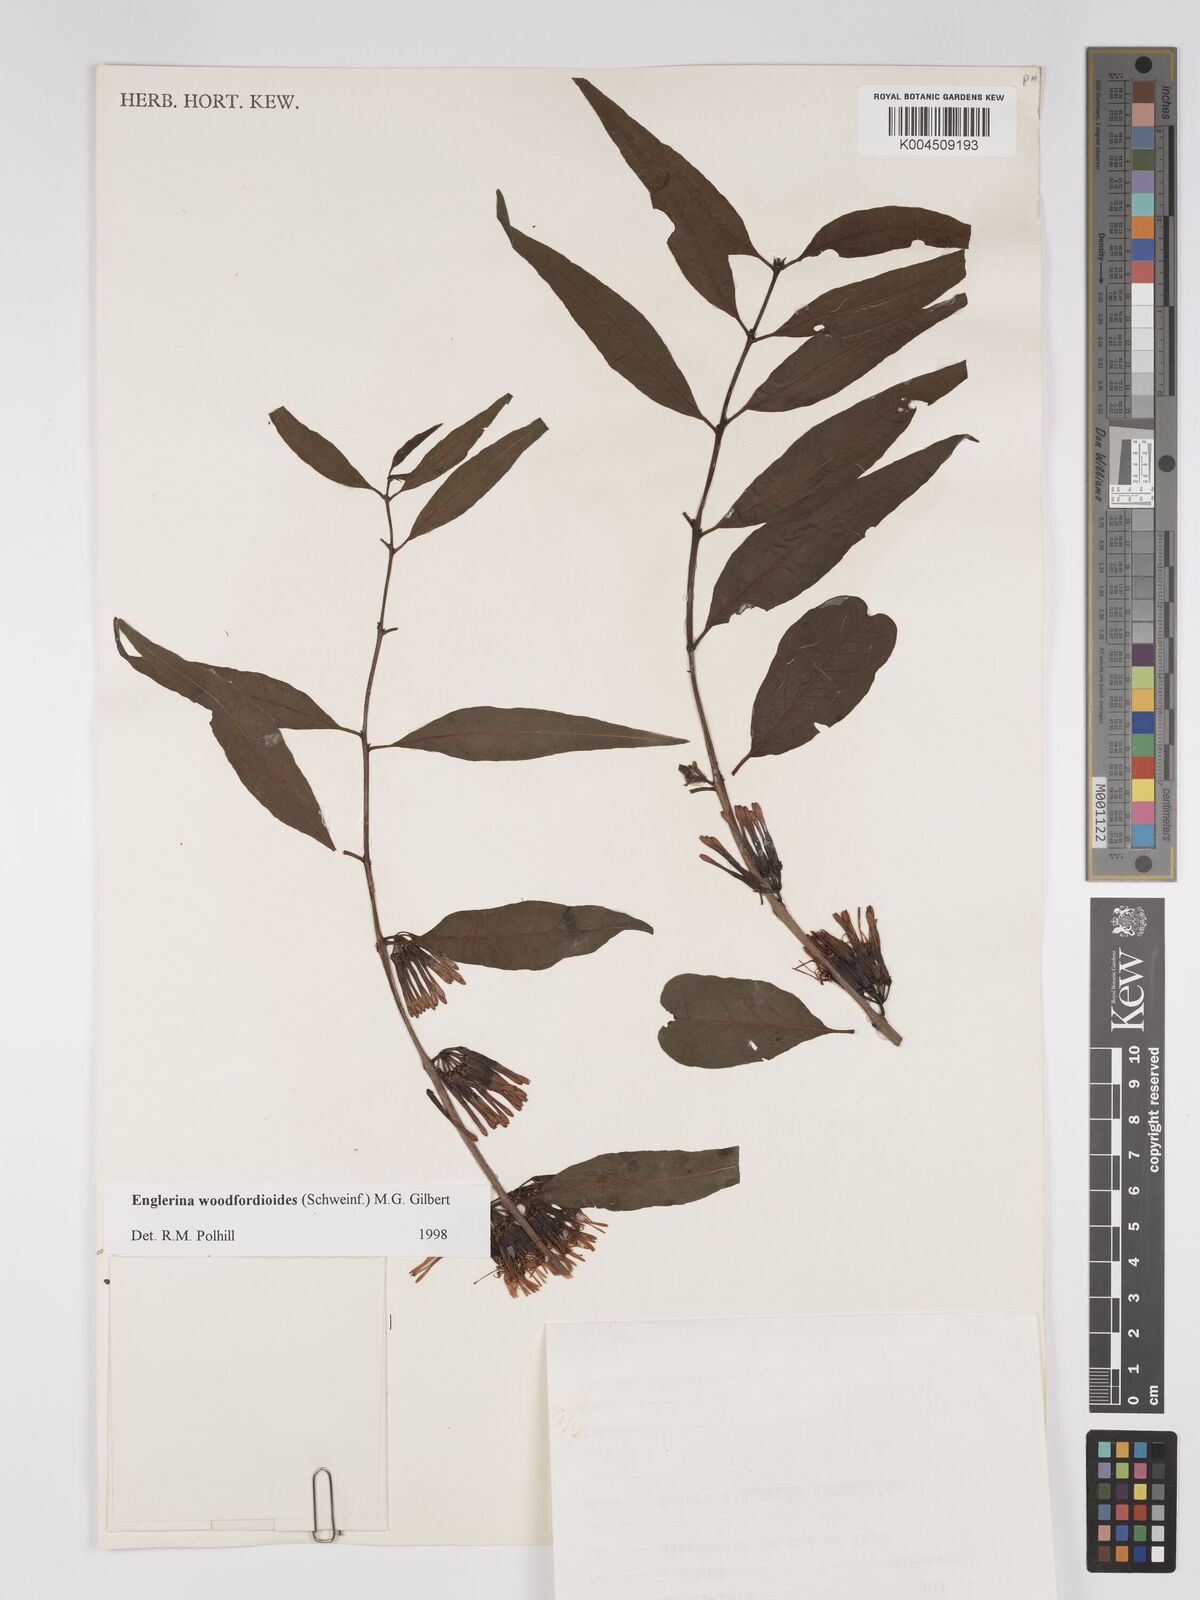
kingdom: Plantae
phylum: Tracheophyta
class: Magnoliopsida
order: Santalales
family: Loranthaceae
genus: Englerina
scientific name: Englerina woodfordioides
